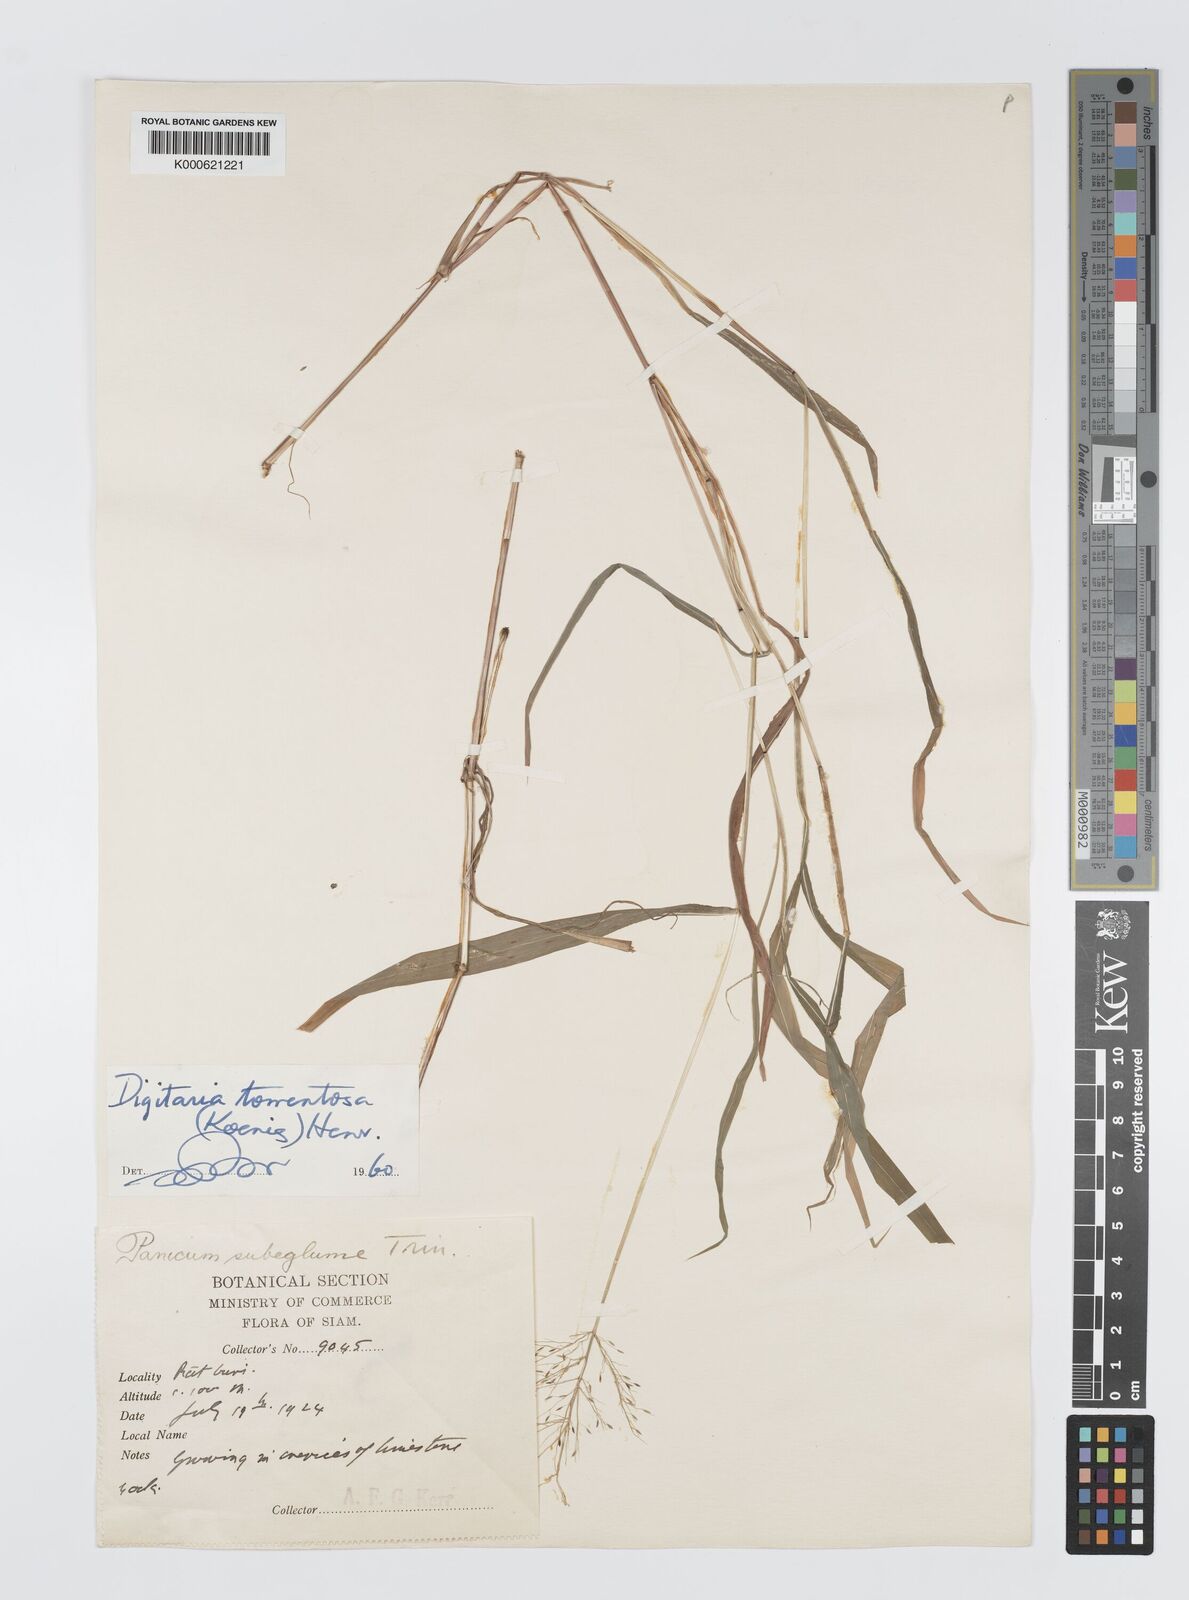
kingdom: Plantae
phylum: Tracheophyta
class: Liliopsida
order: Poales
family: Poaceae
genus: Digitaria
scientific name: Digitaria tomentosa
